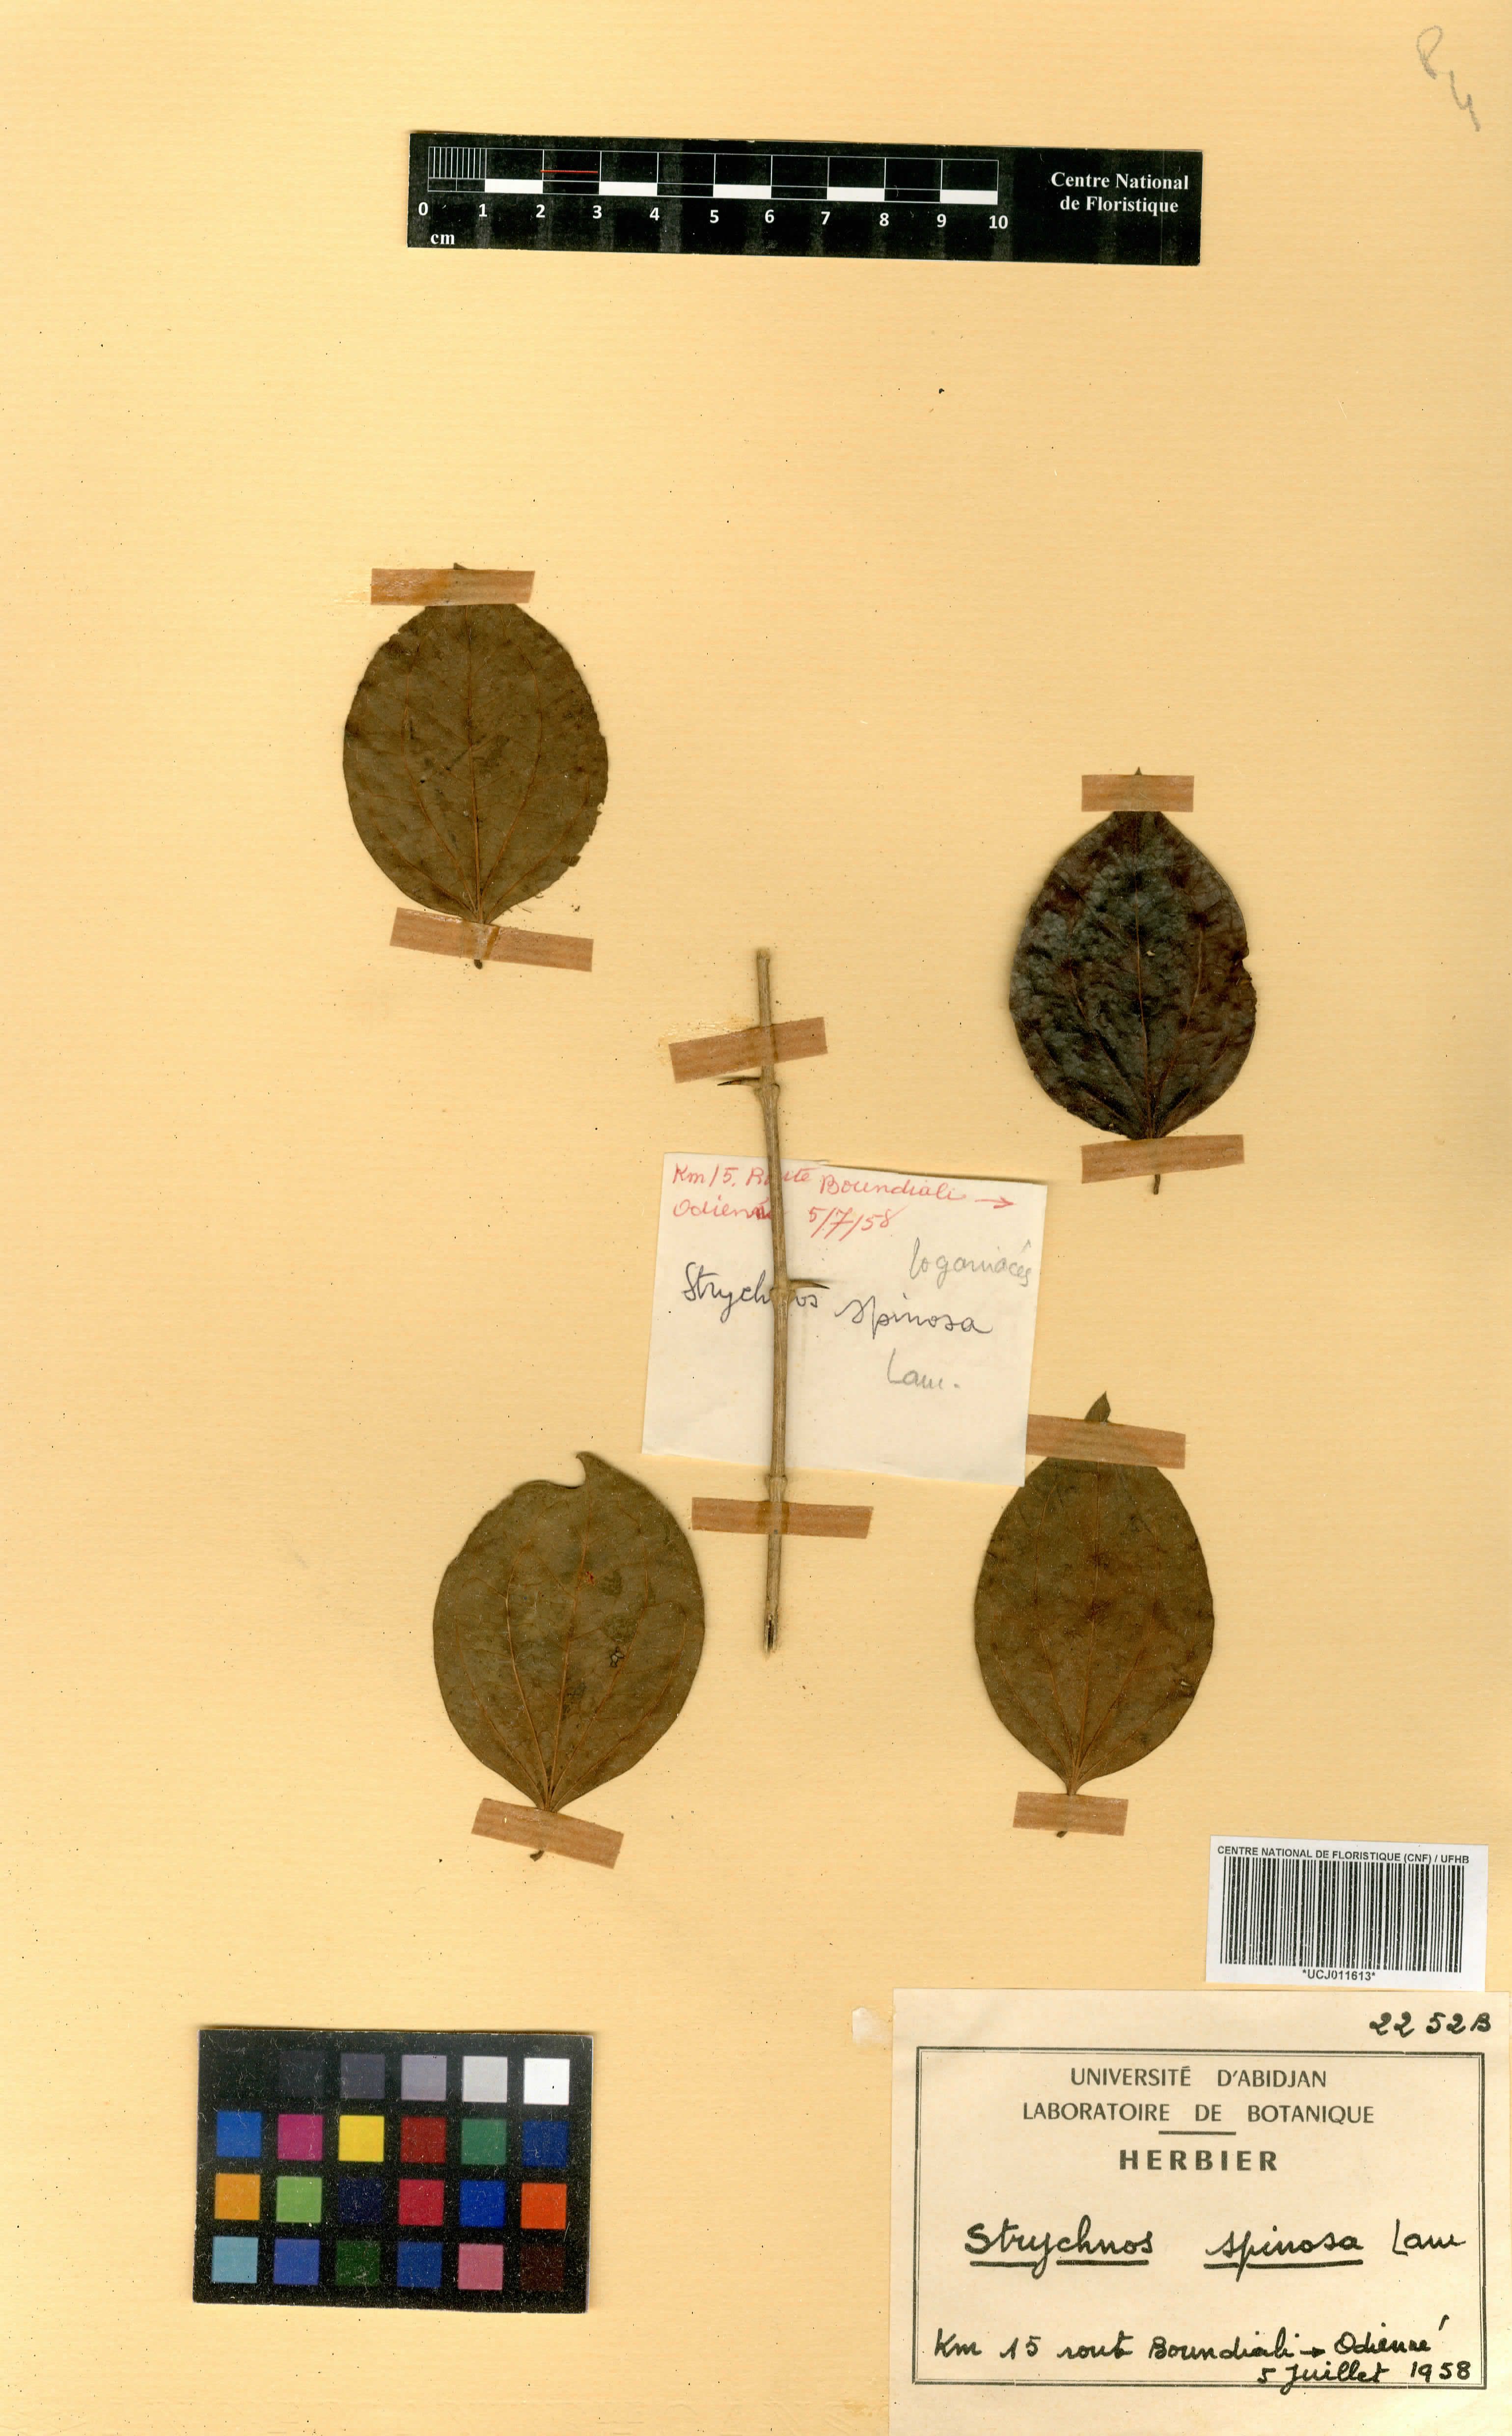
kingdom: Plantae
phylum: Tracheophyta
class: Magnoliopsida
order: Gentianales
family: Loganiaceae
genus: Strychnos
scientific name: Strychnos spinosa
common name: Natal orange
